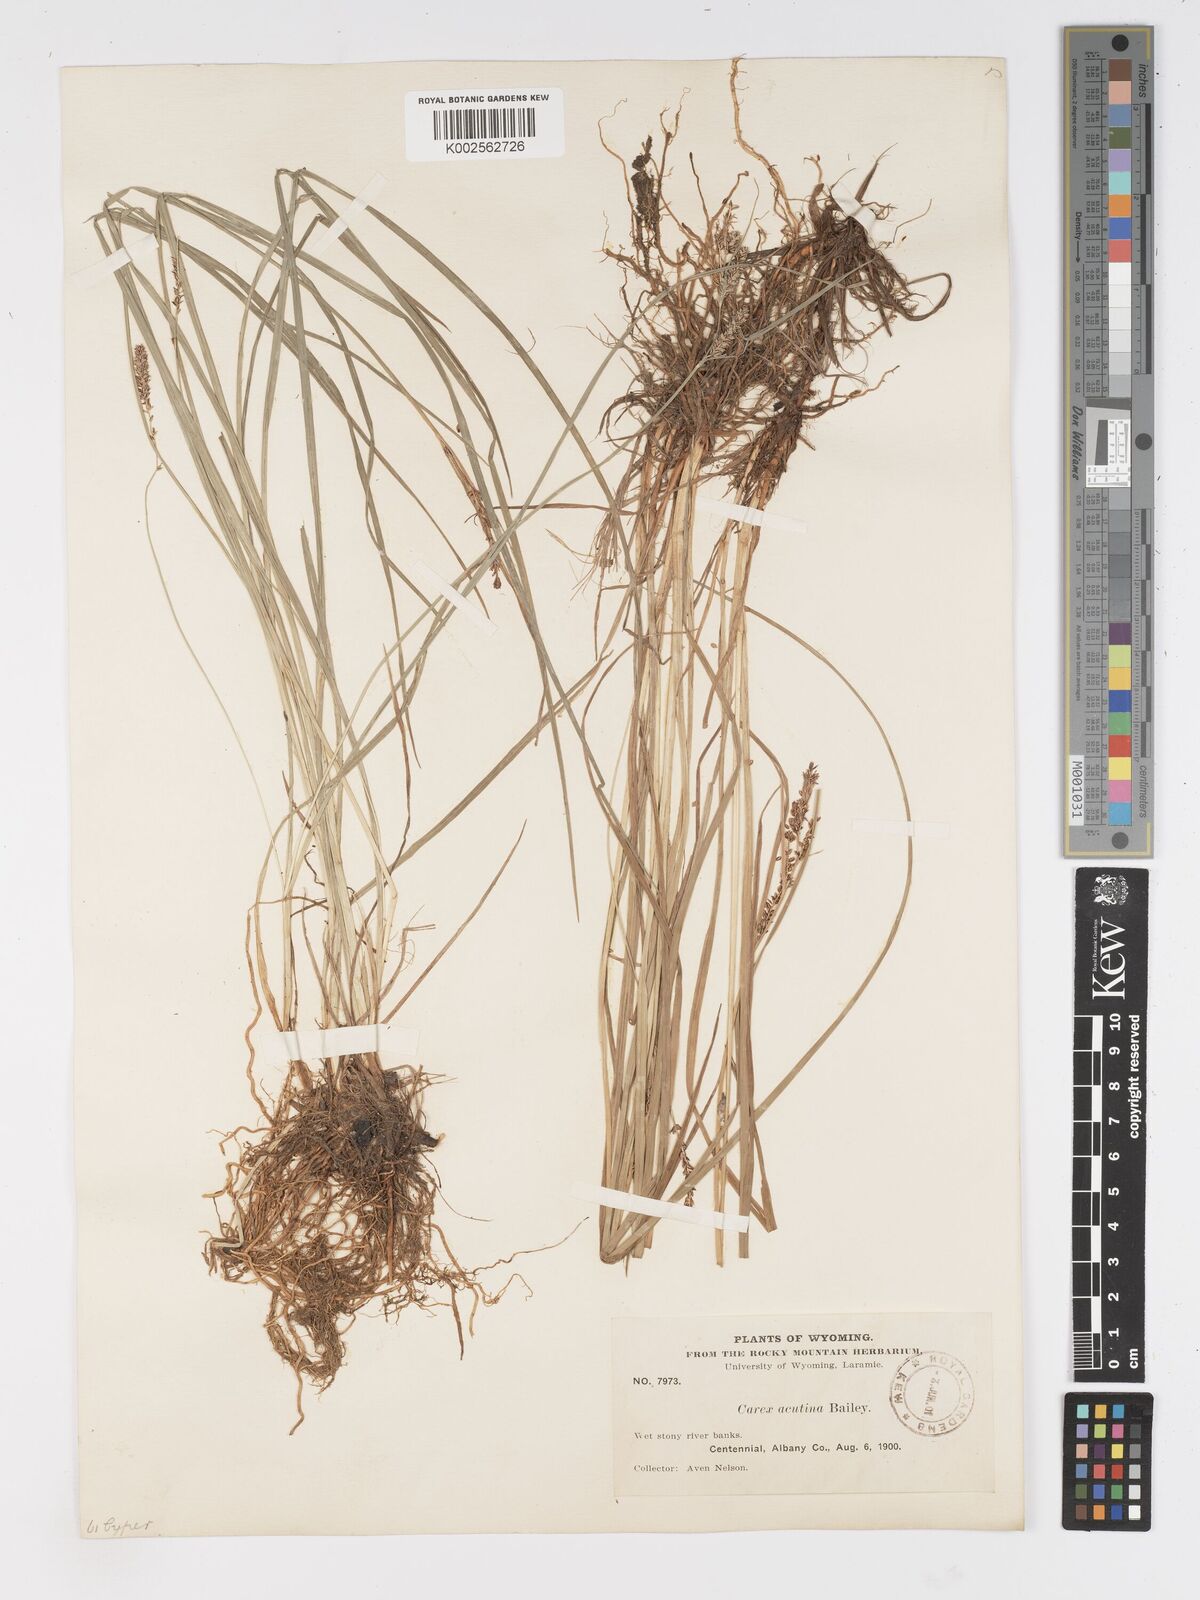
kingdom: Plantae
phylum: Tracheophyta
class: Liliopsida
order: Poales
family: Cyperaceae
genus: Carex
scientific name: Carex angustata
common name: Widefruit sedge
